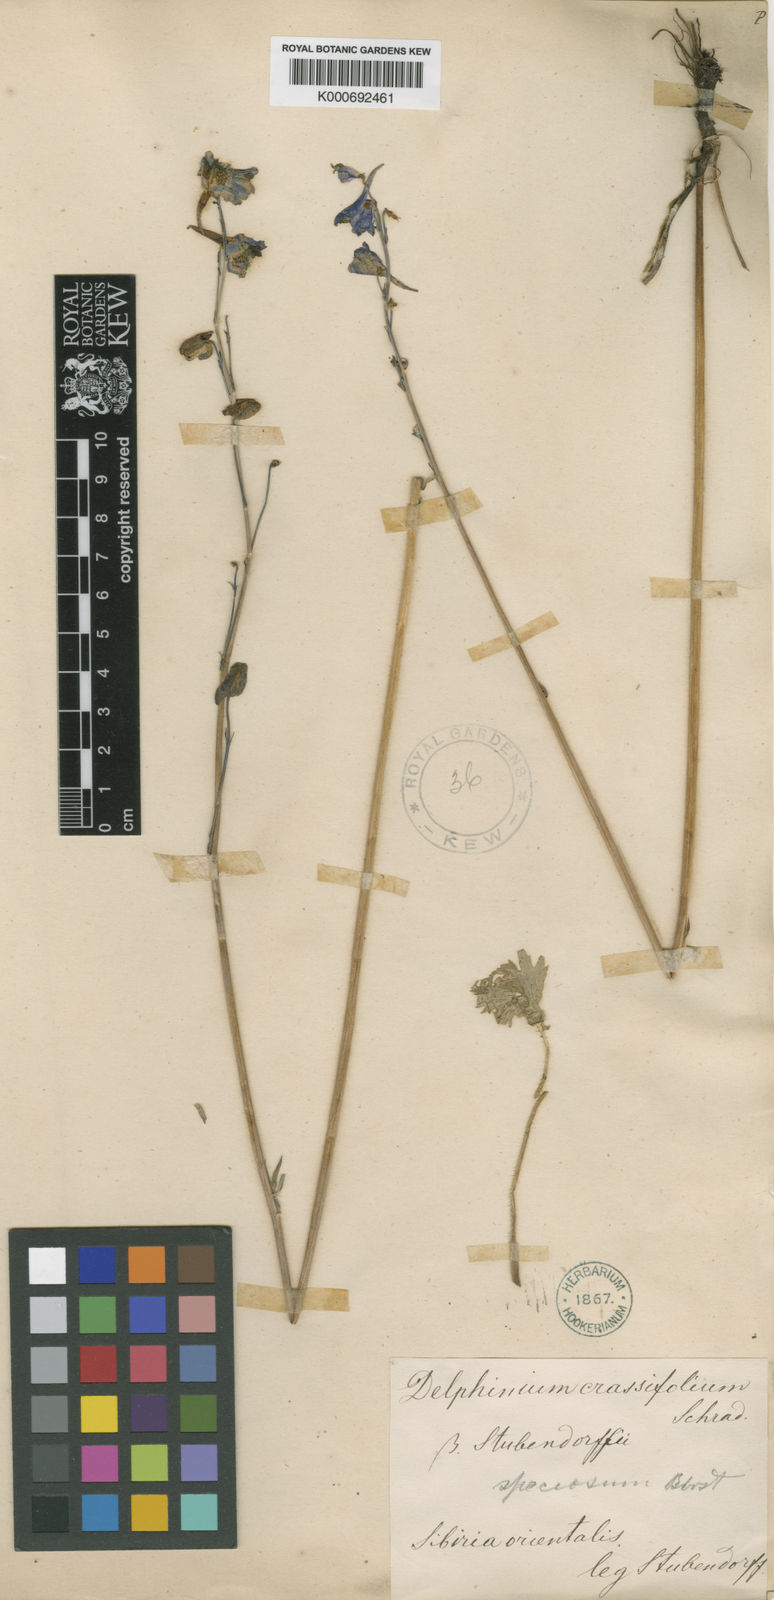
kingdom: Plantae
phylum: Tracheophyta
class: Magnoliopsida
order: Ranunculales
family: Ranunculaceae
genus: Delphinium
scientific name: Delphinium crassifolium
